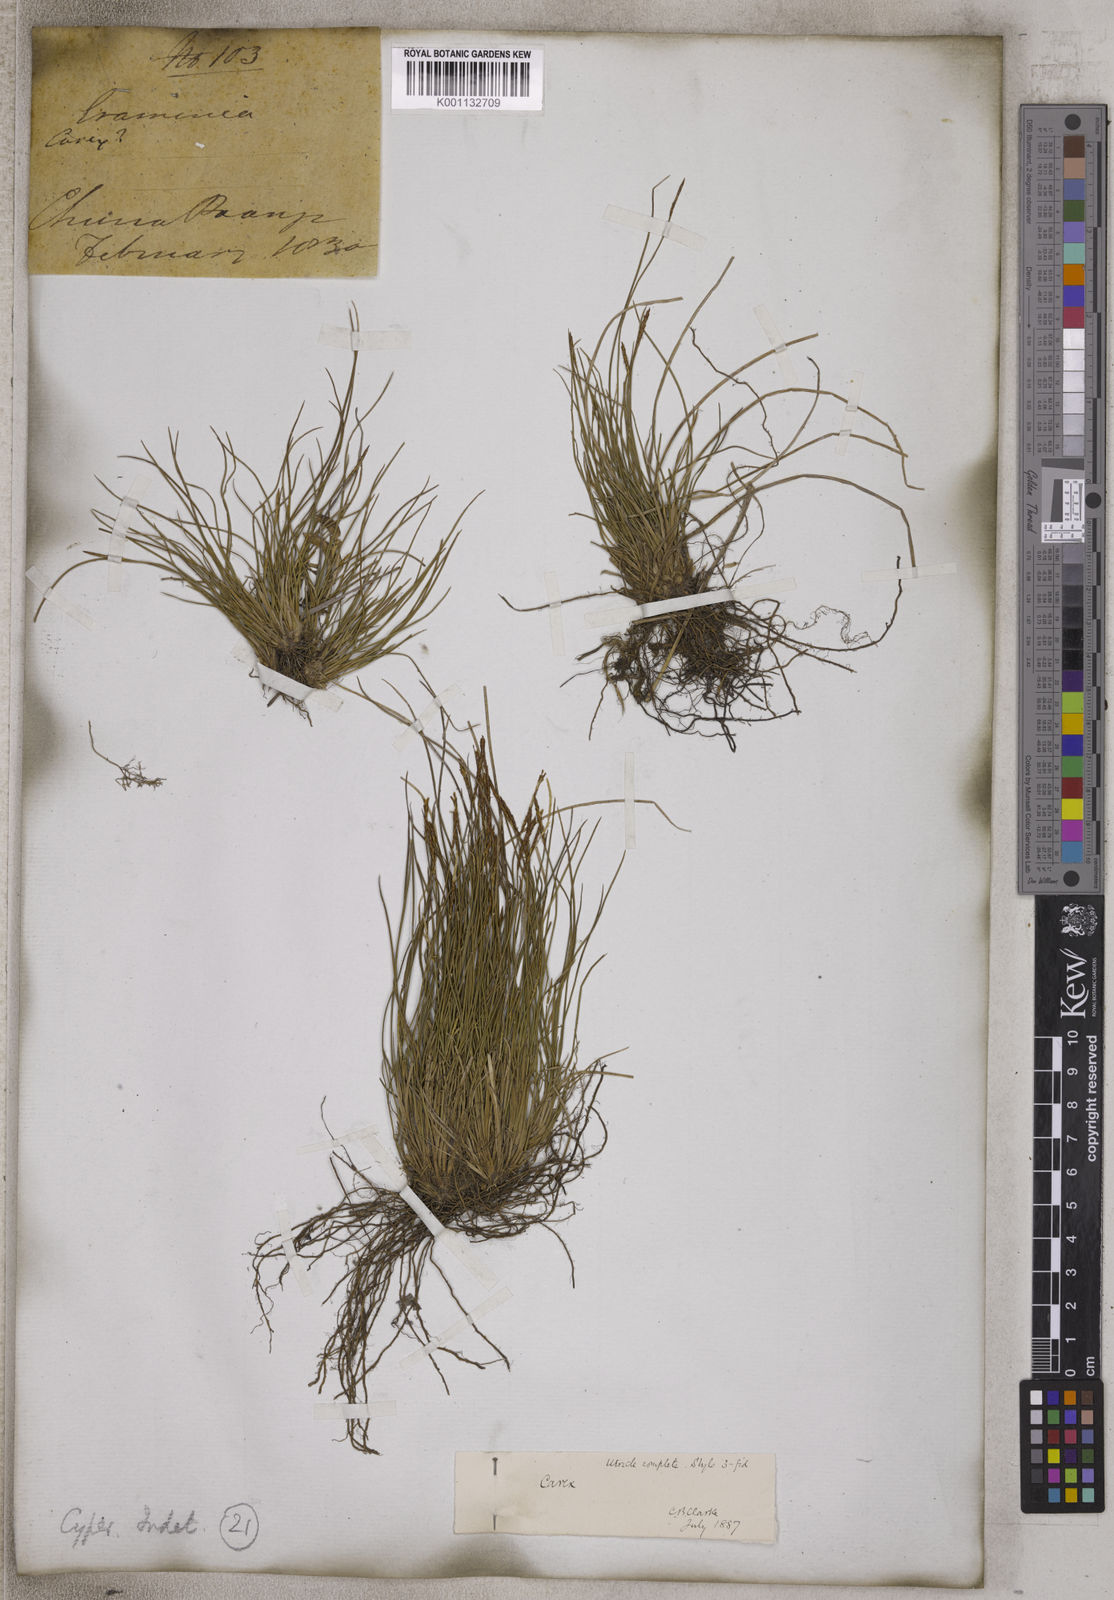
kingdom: Plantae
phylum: Tracheophyta
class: Liliopsida
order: Poales
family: Cyperaceae
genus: Carex
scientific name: Carex
